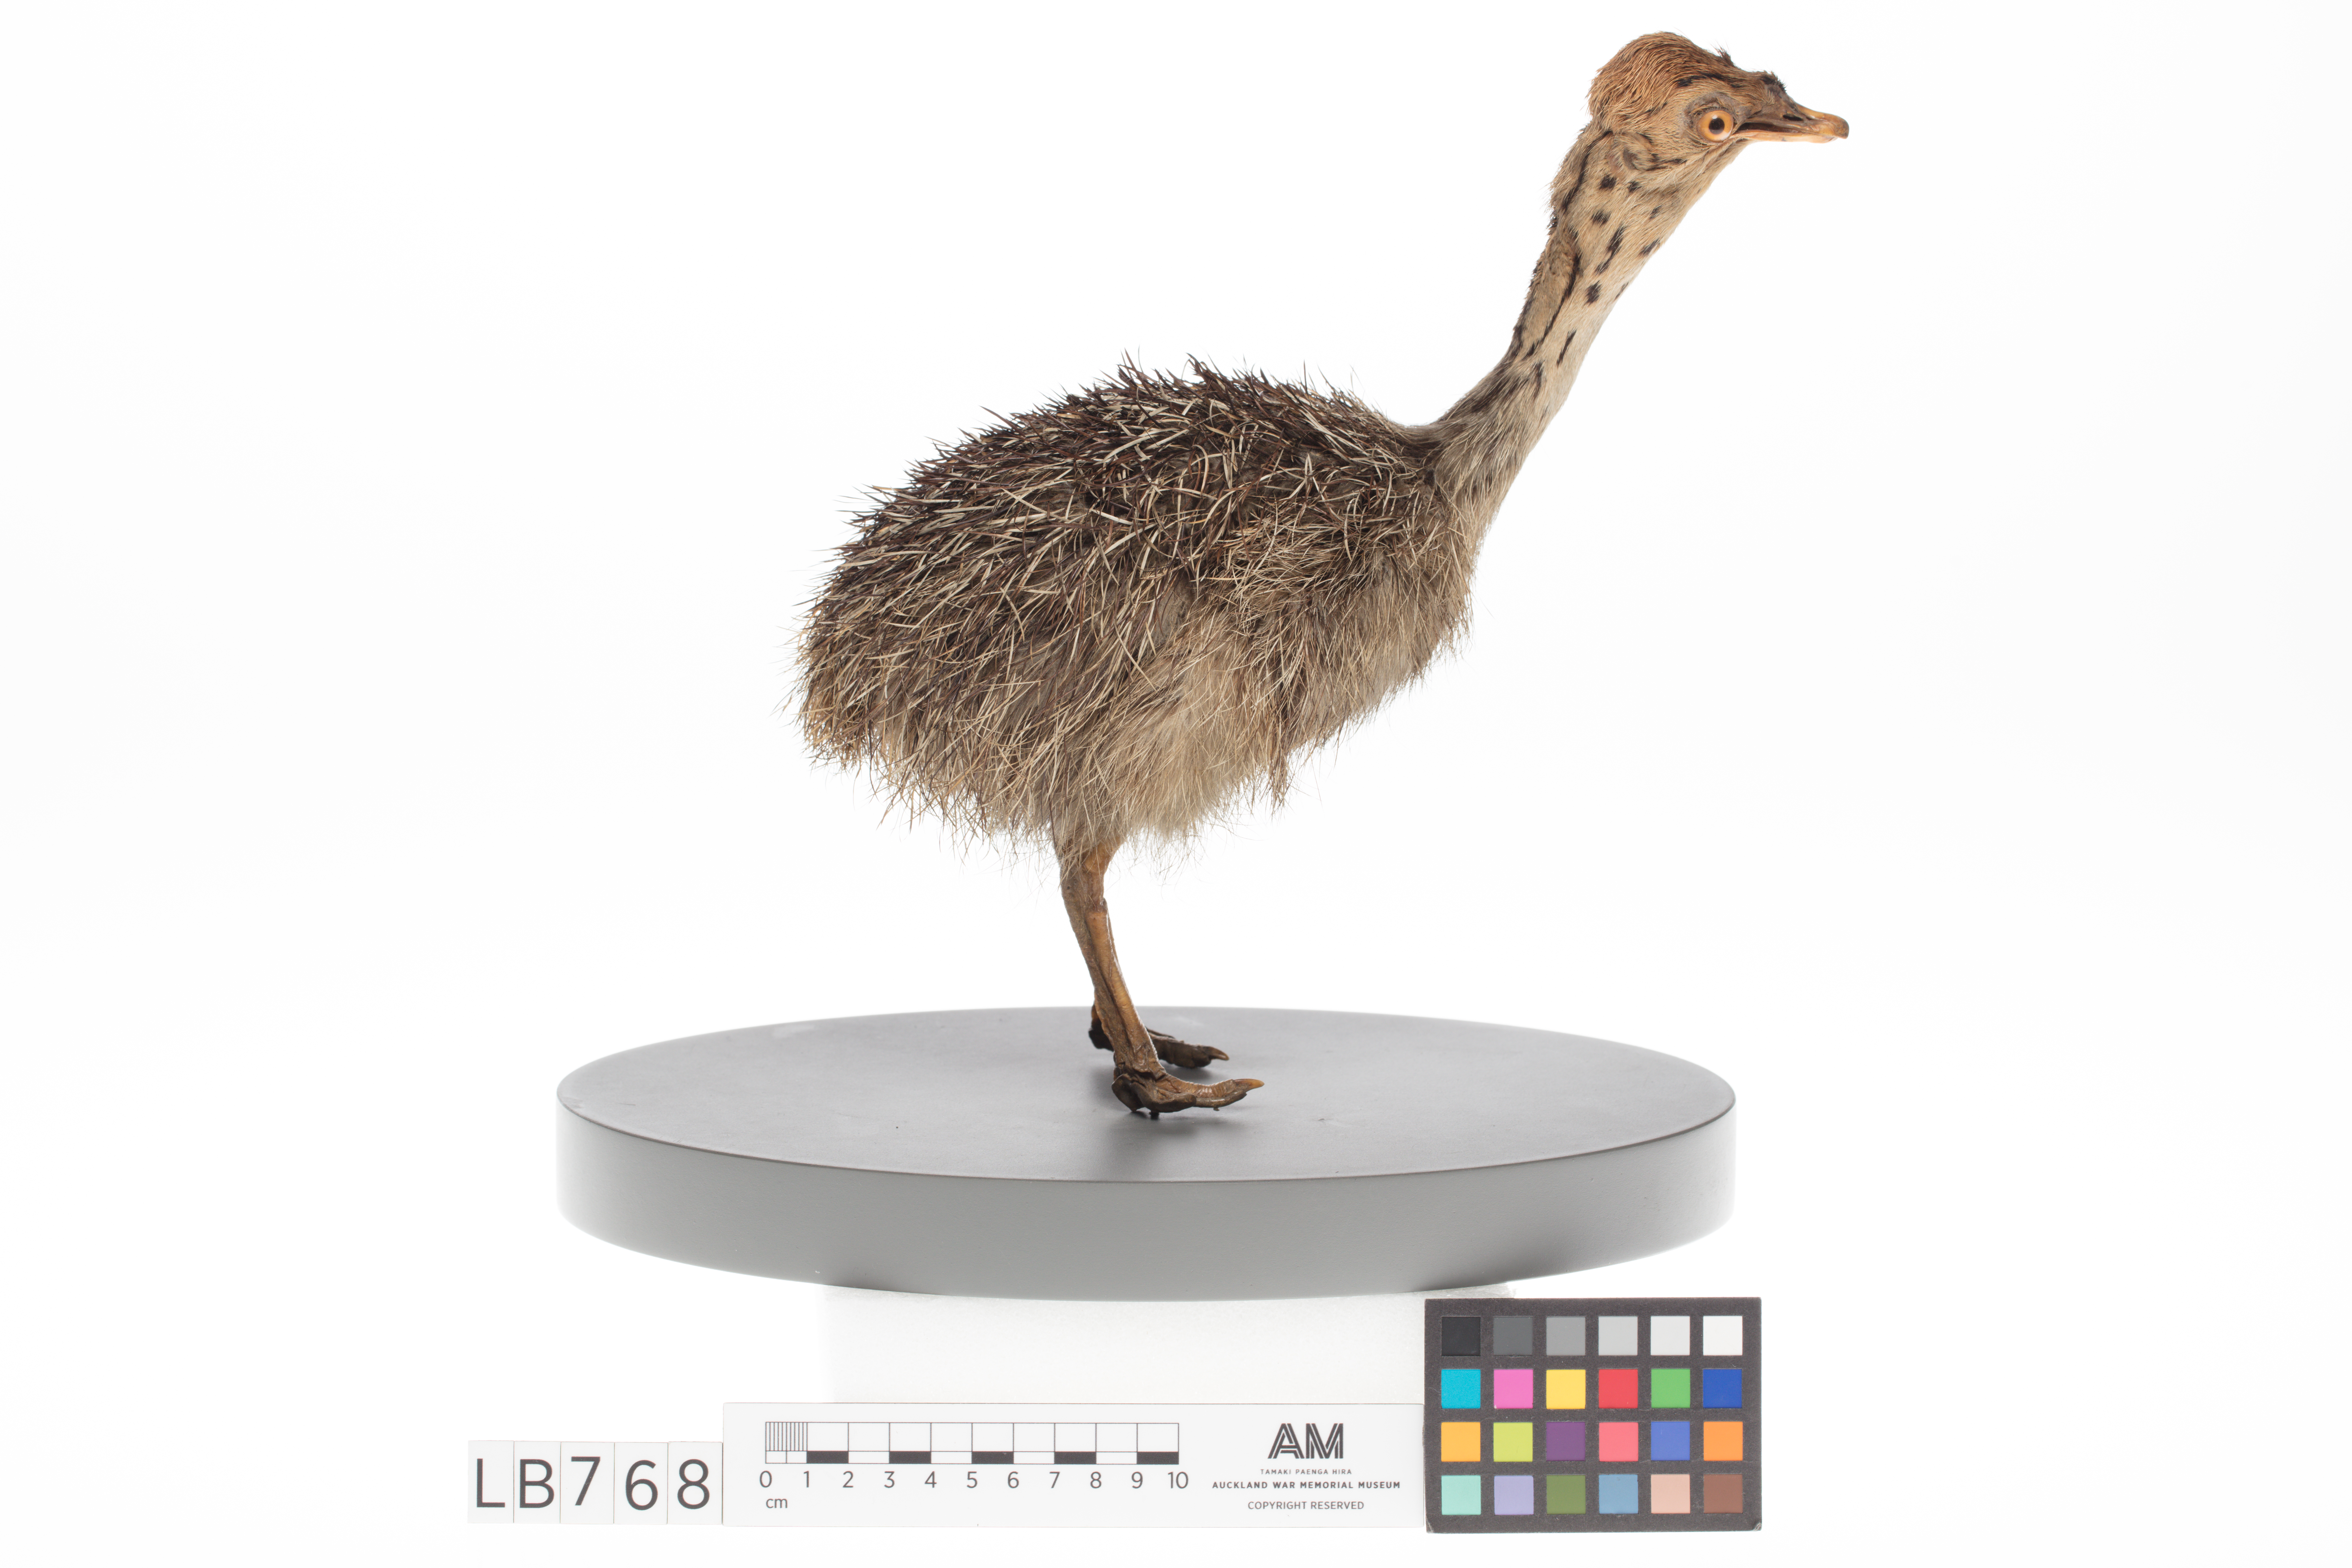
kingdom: Animalia
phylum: Chordata
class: Aves
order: Struthioniformes
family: Struthionidae
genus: Struthio
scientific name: Struthio camelus
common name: Common ostrich
